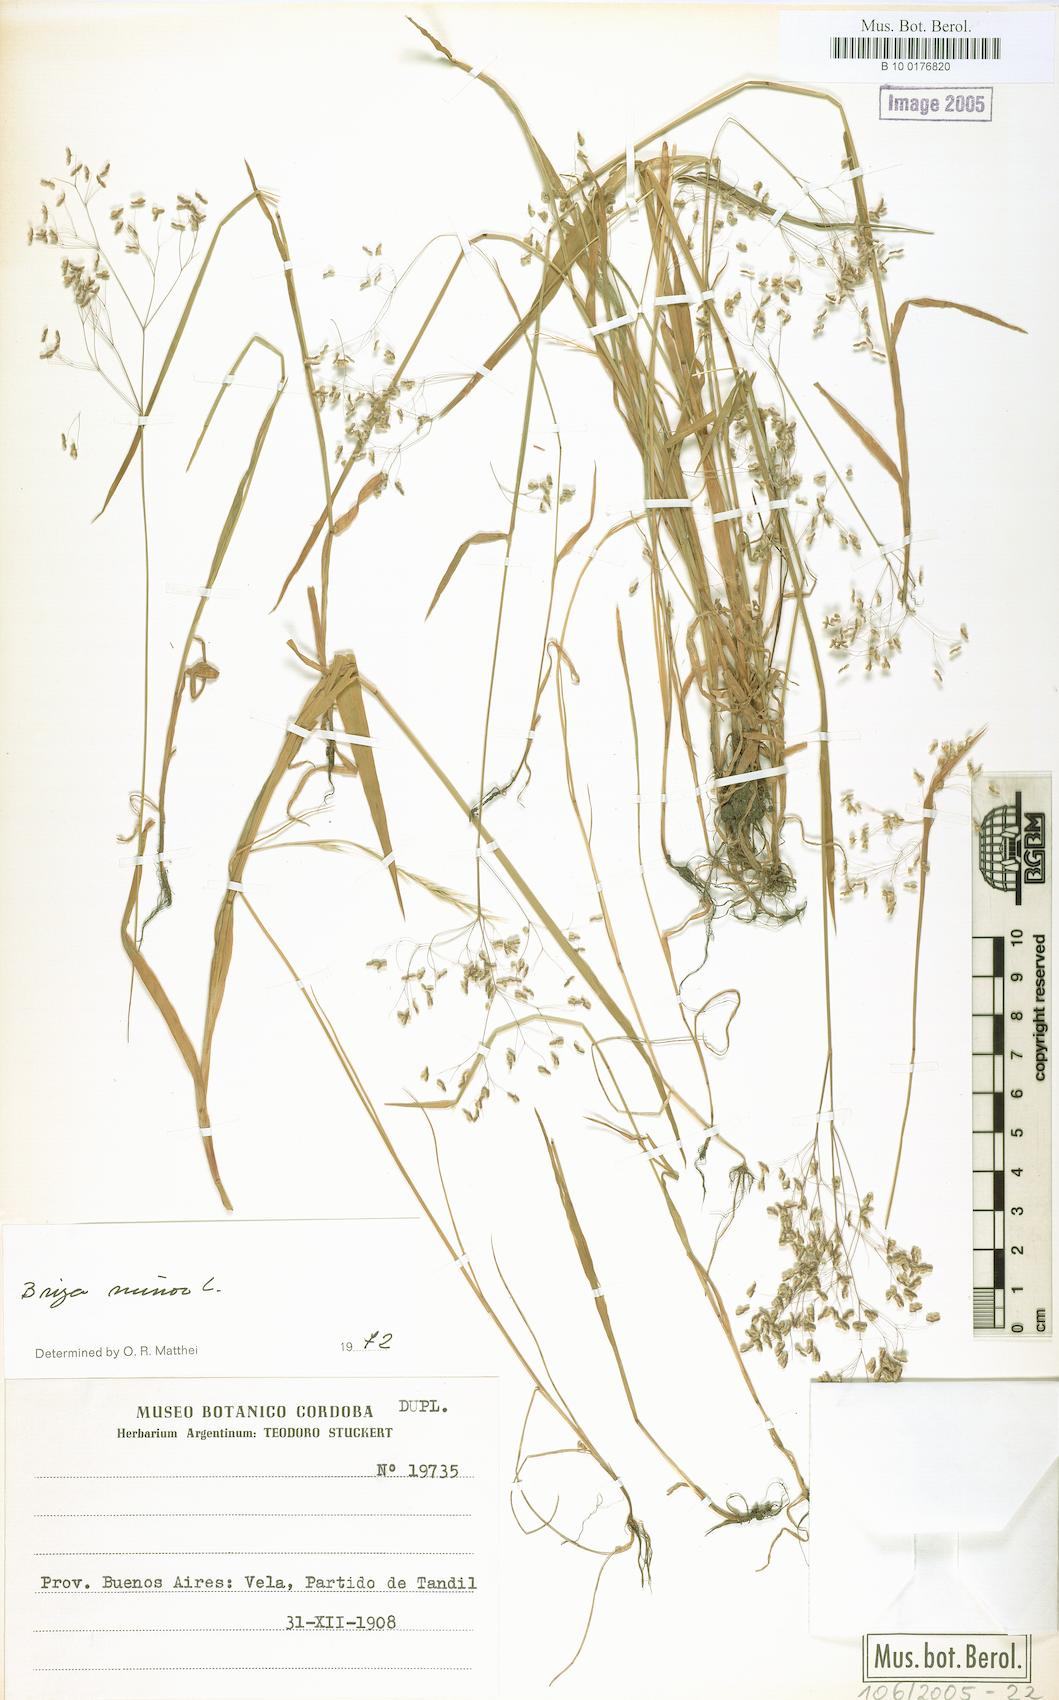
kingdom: Plantae
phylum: Tracheophyta
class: Liliopsida
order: Poales
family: Poaceae
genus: Briza
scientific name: Briza minor
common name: Lesser quaking-grass
